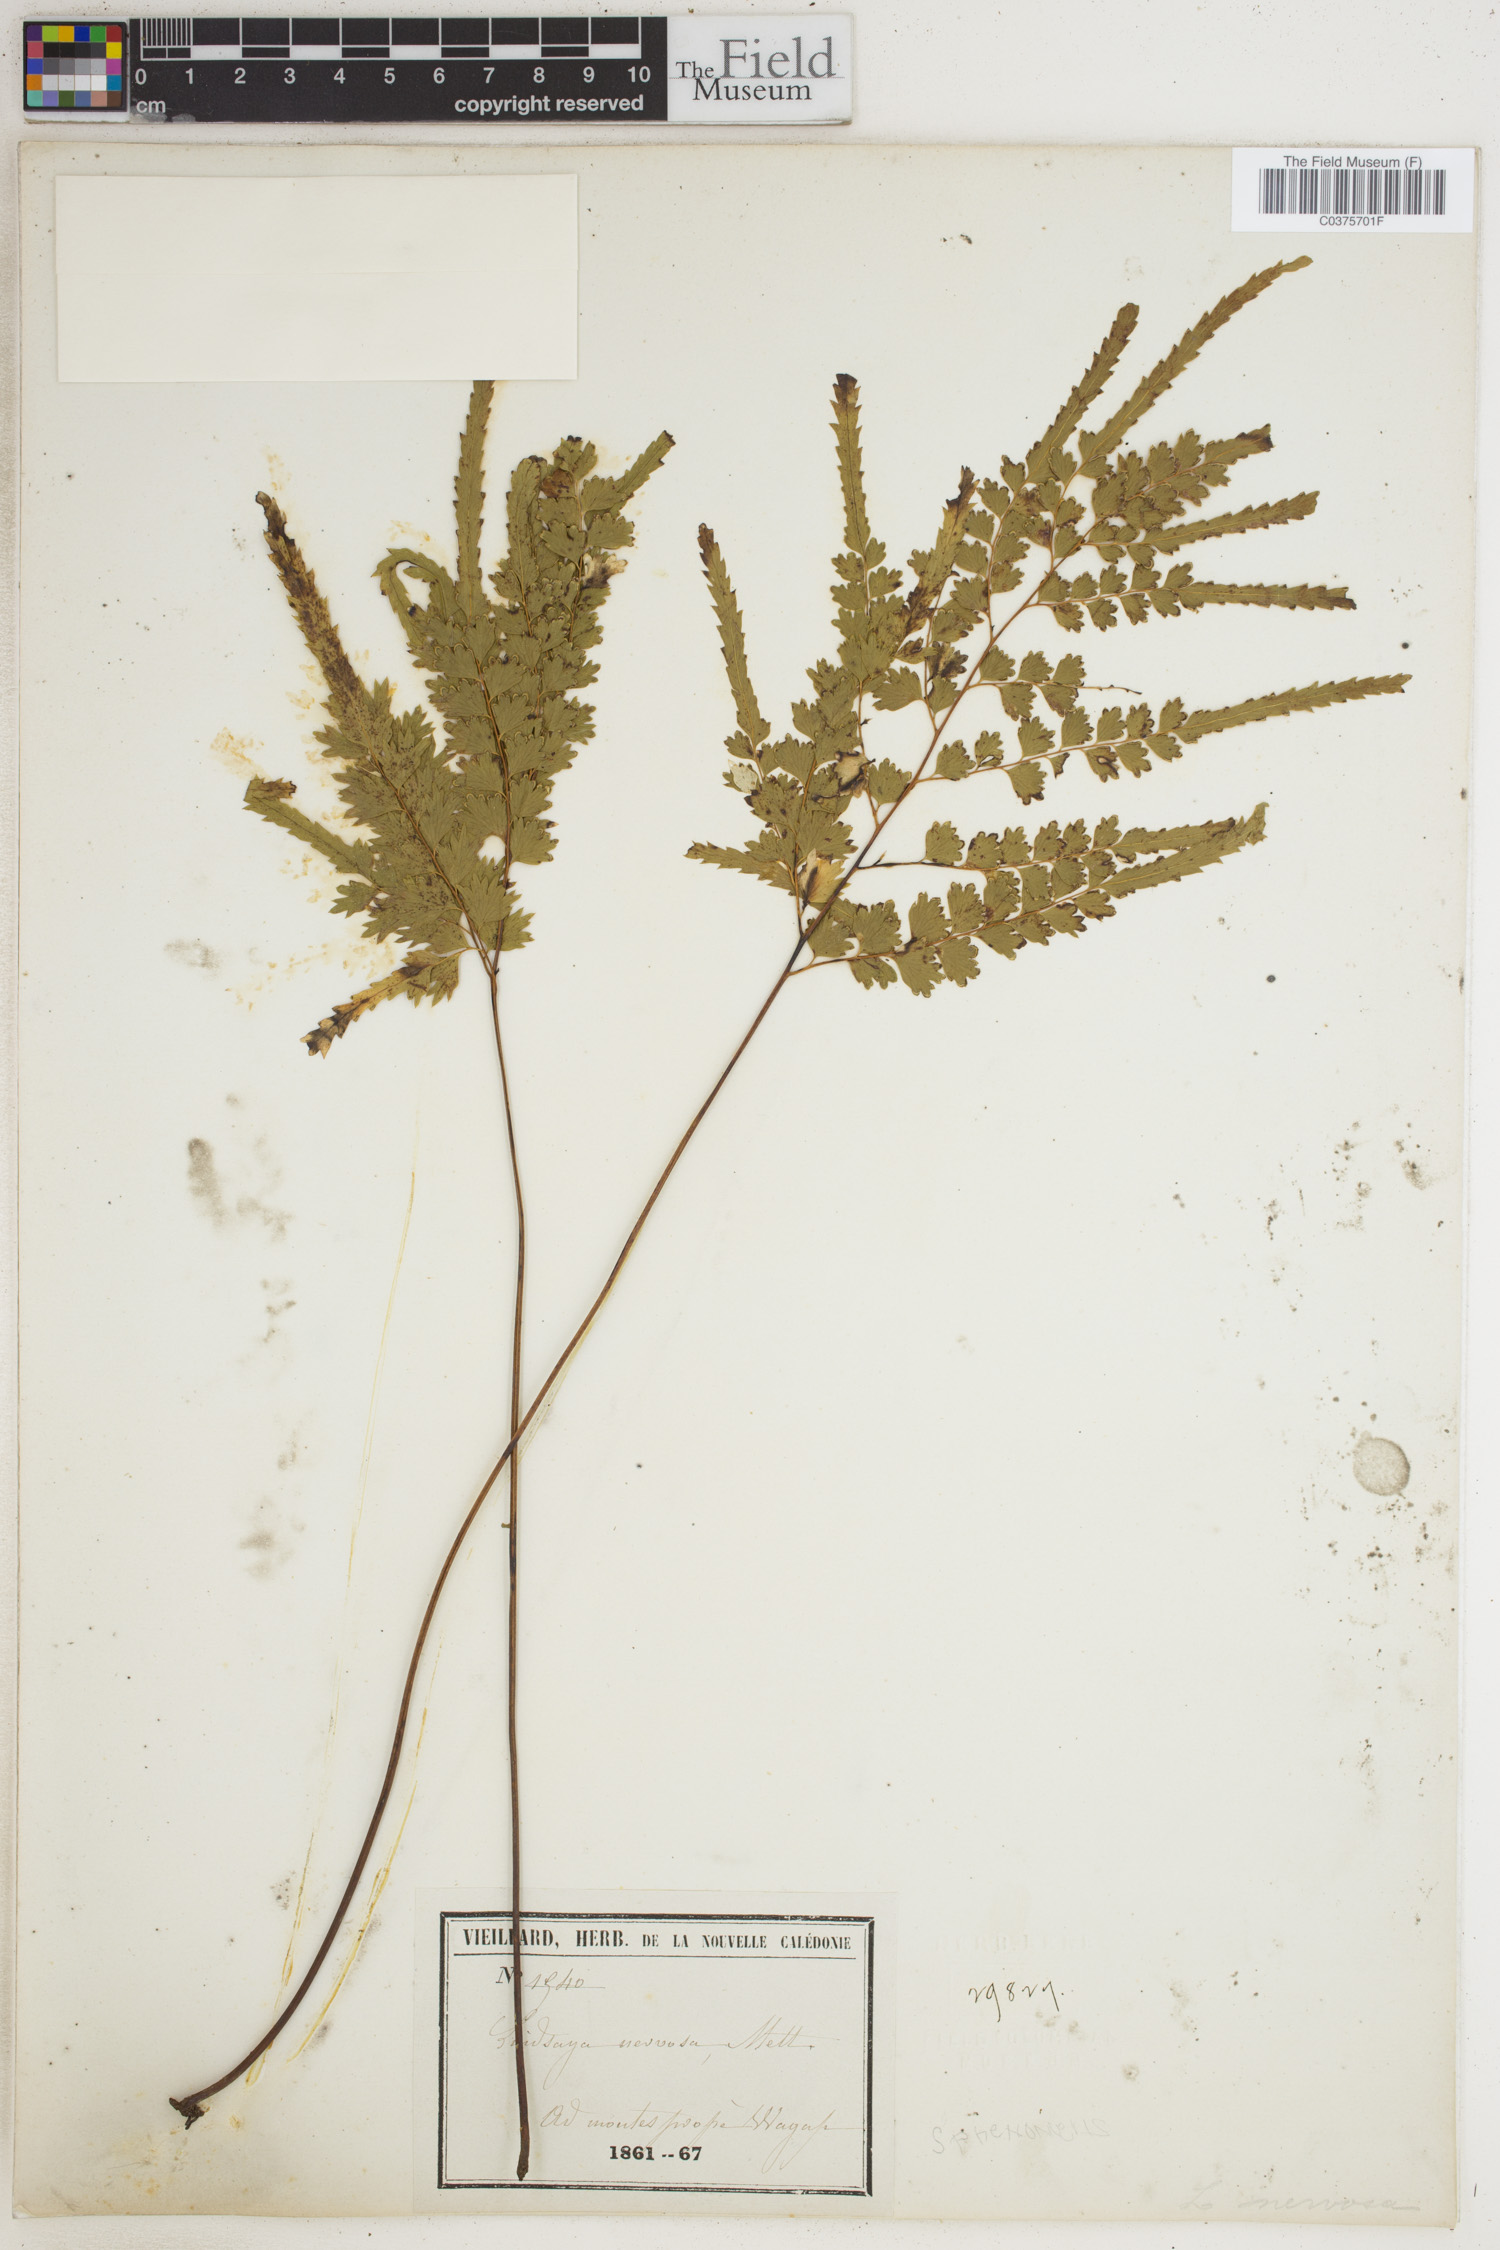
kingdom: Plantae
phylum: Tracheophyta
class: Polypodiopsida
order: Polypodiales
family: Lindsaeaceae
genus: Lindsaea
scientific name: Lindsaea rigidiuscula
